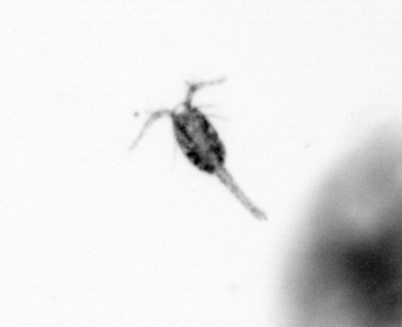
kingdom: Animalia
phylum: Arthropoda
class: Copepoda
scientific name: Copepoda
